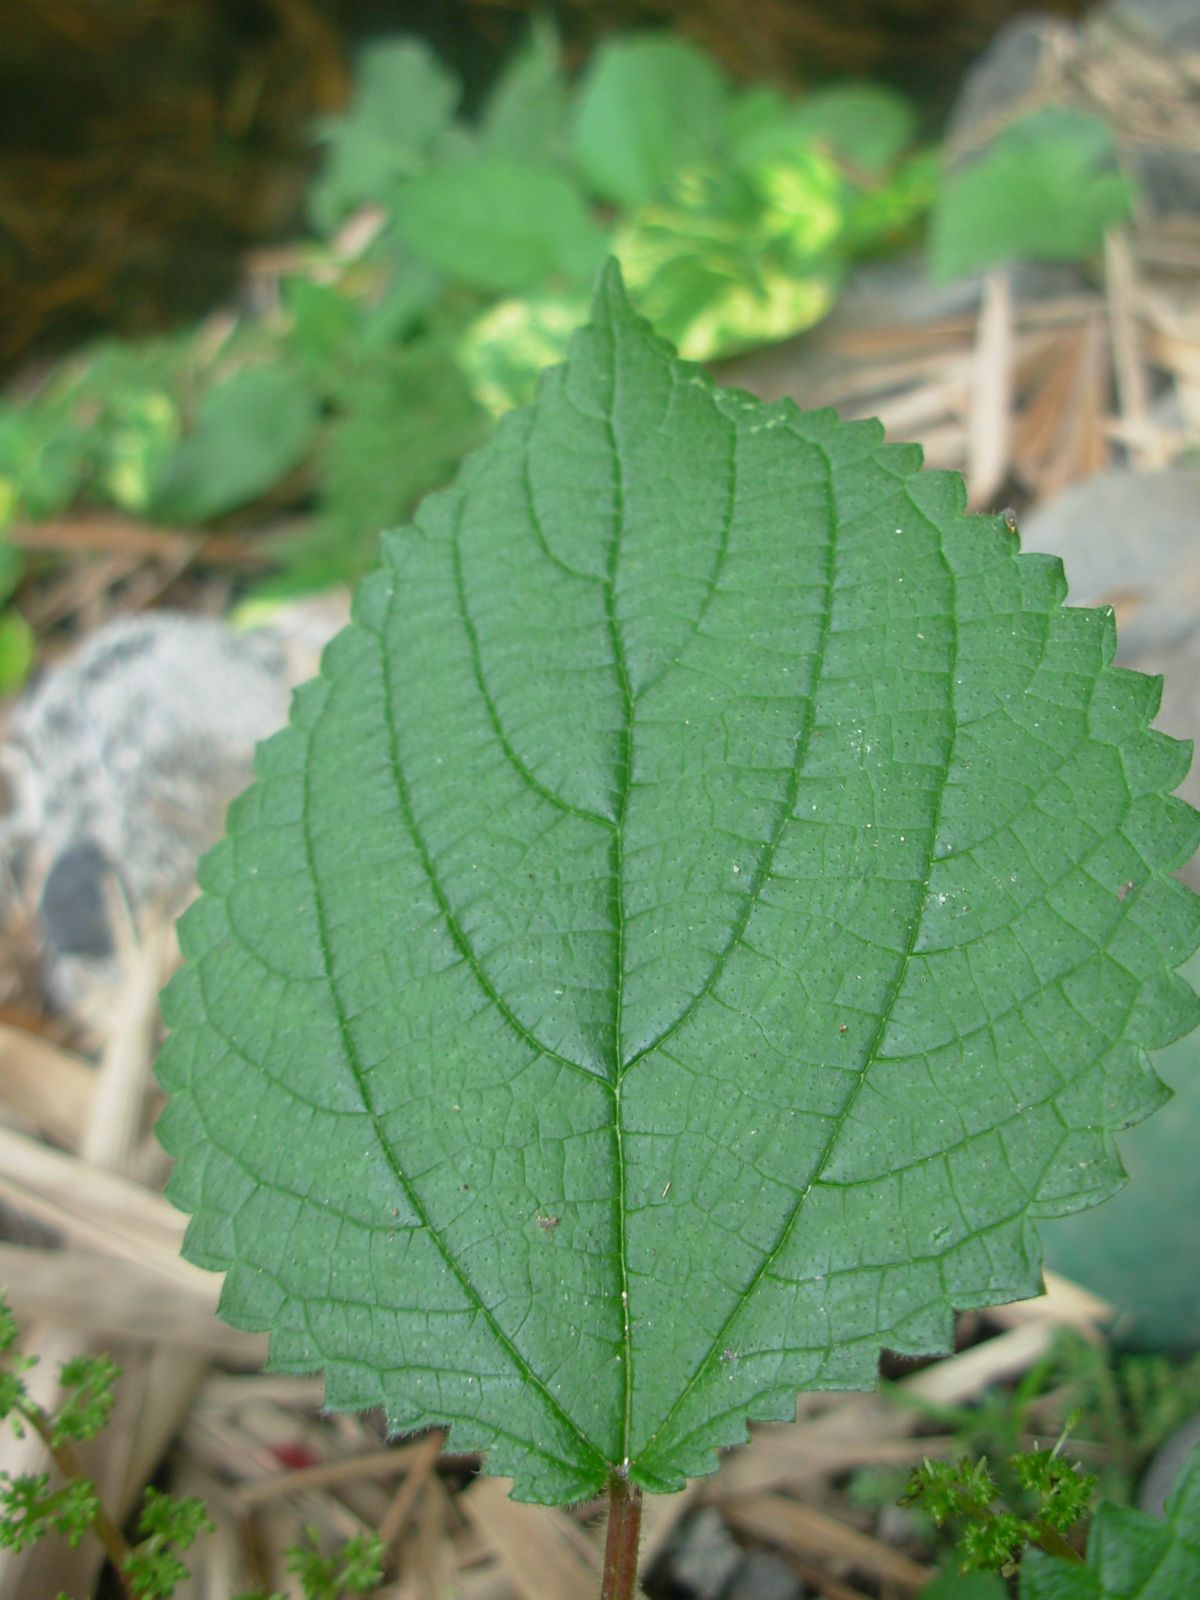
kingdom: Plantae
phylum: Tracheophyta
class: Magnoliopsida
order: Rosales
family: Urticaceae
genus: Laportea
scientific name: Laportea aestuans
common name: West indian woodnettle
